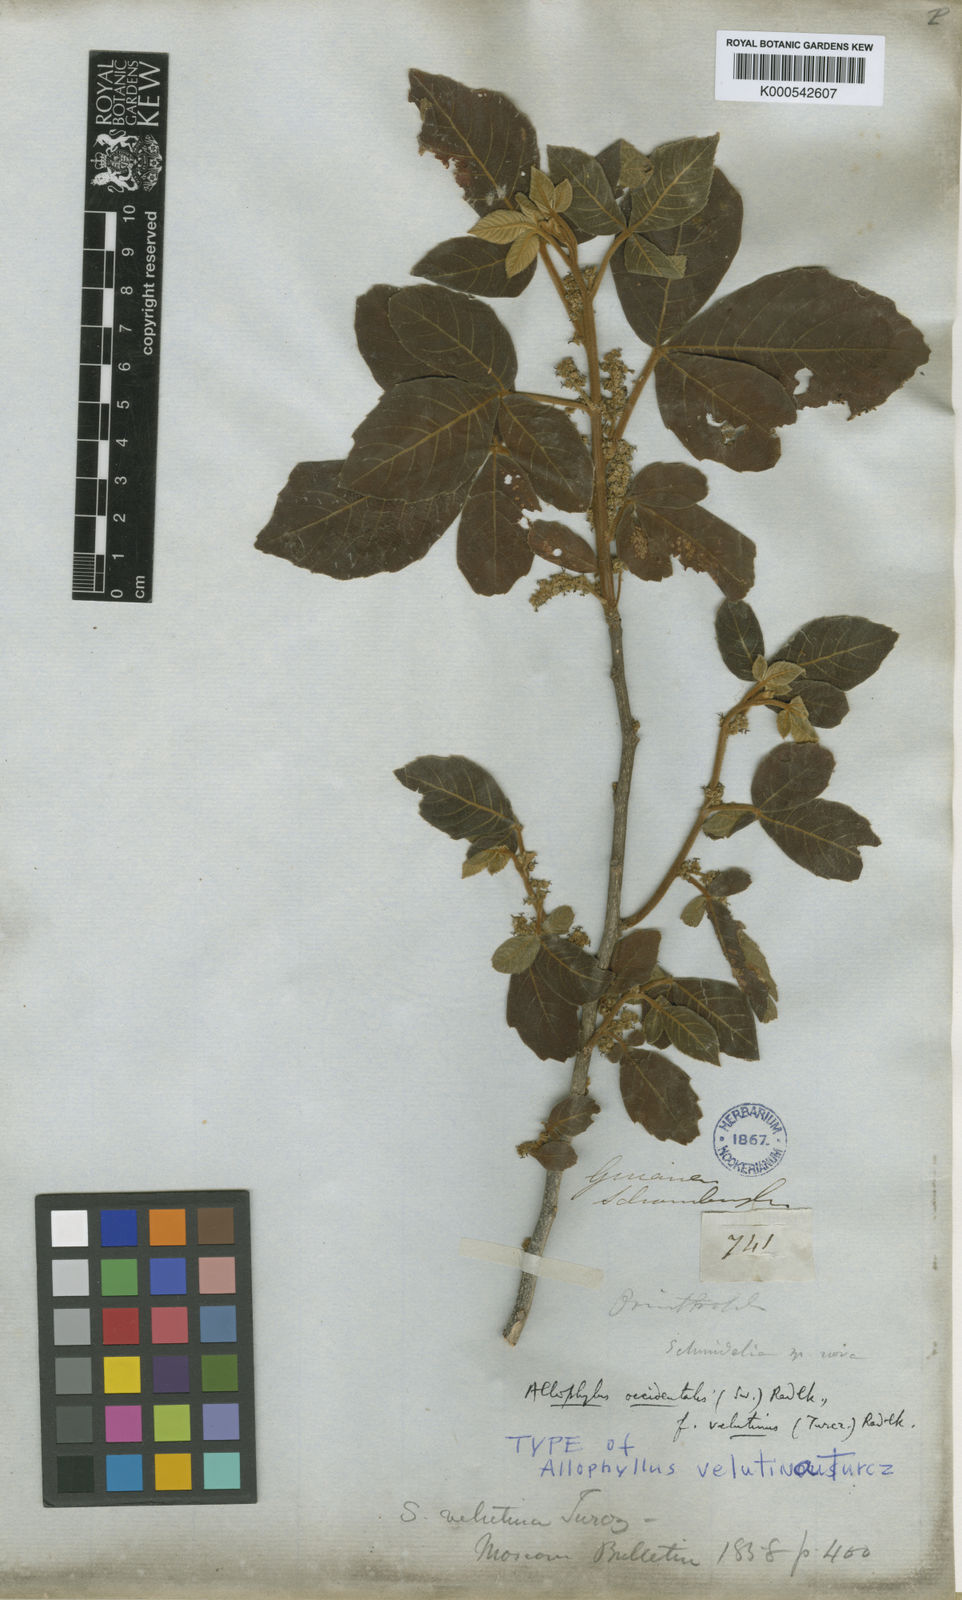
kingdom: Plantae
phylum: Tracheophyta
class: Magnoliopsida
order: Sapindales
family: Sapindaceae
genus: Allophylus
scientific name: Allophylus racemosus
